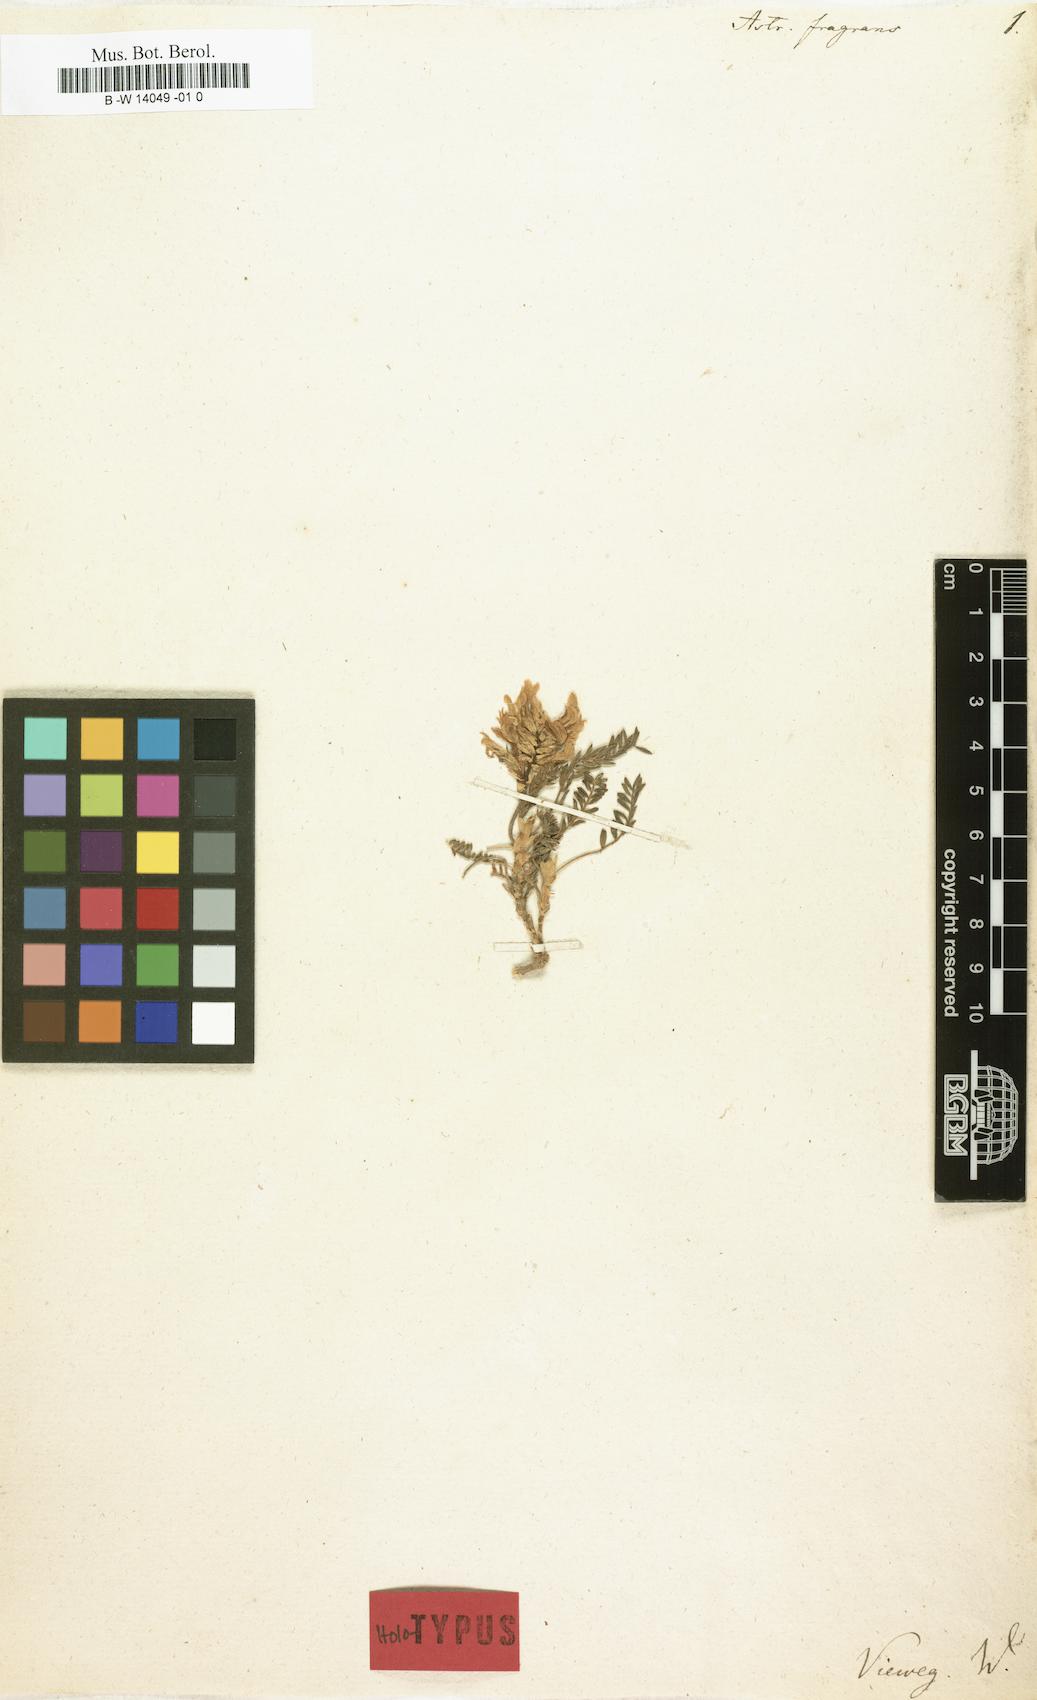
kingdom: Plantae
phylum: Tracheophyta
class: Magnoliopsida
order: Fabales
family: Fabaceae
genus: Astragalus
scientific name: Astragalus fragrans
